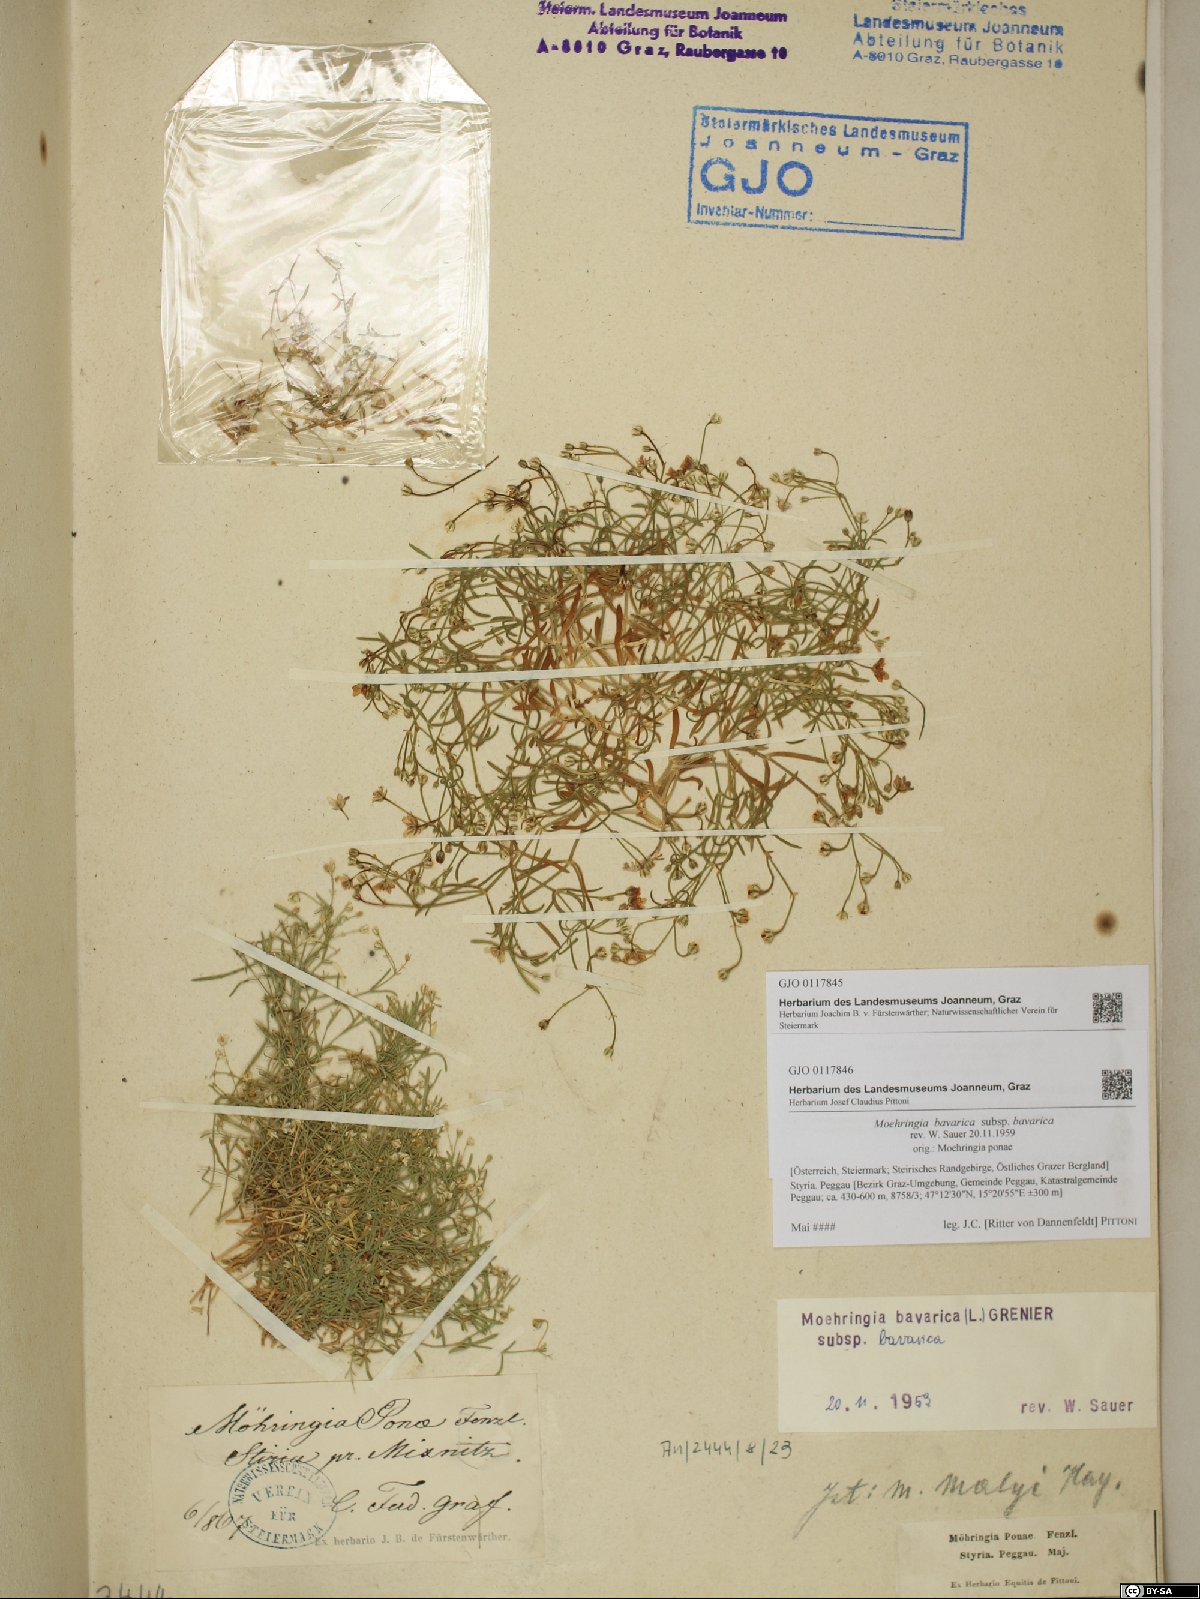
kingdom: Plantae
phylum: Tracheophyta
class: Magnoliopsida
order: Caryophyllales
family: Caryophyllaceae
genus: Moehringia
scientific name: Moehringia bavarica
